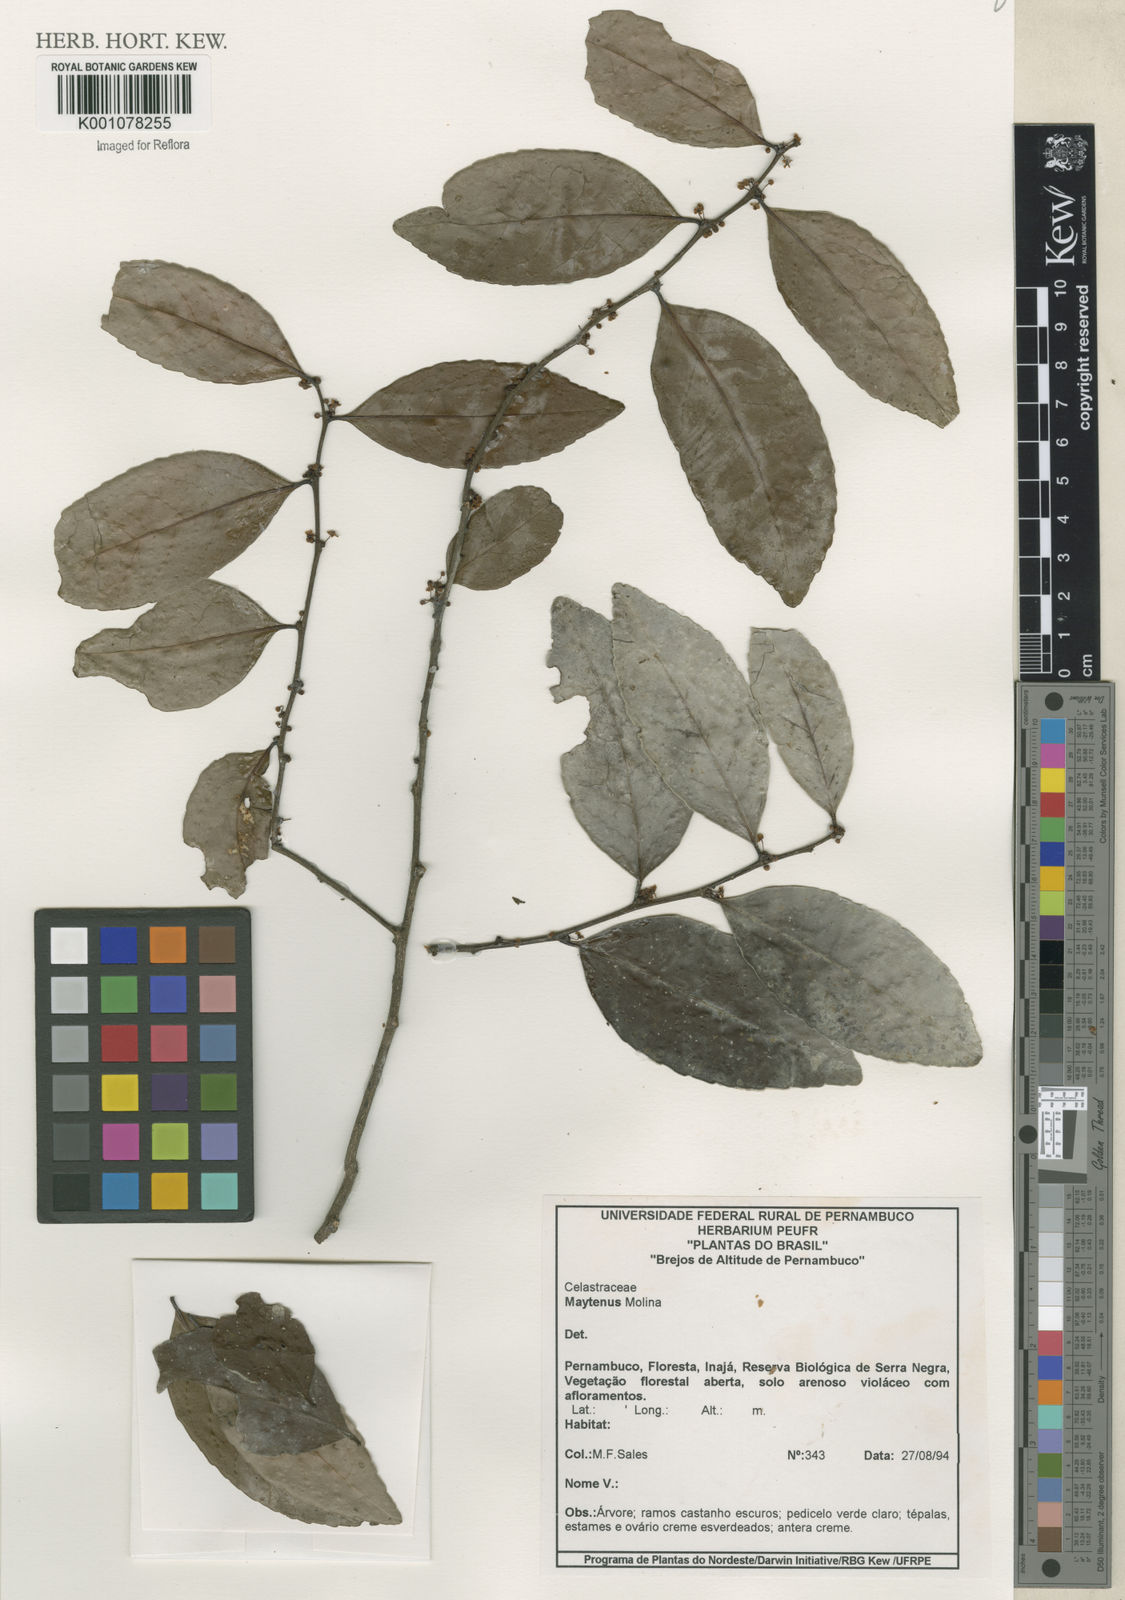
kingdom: Plantae
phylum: Tracheophyta
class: Magnoliopsida
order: Celastrales
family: Celastraceae
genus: Maytenus
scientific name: Maytenus
